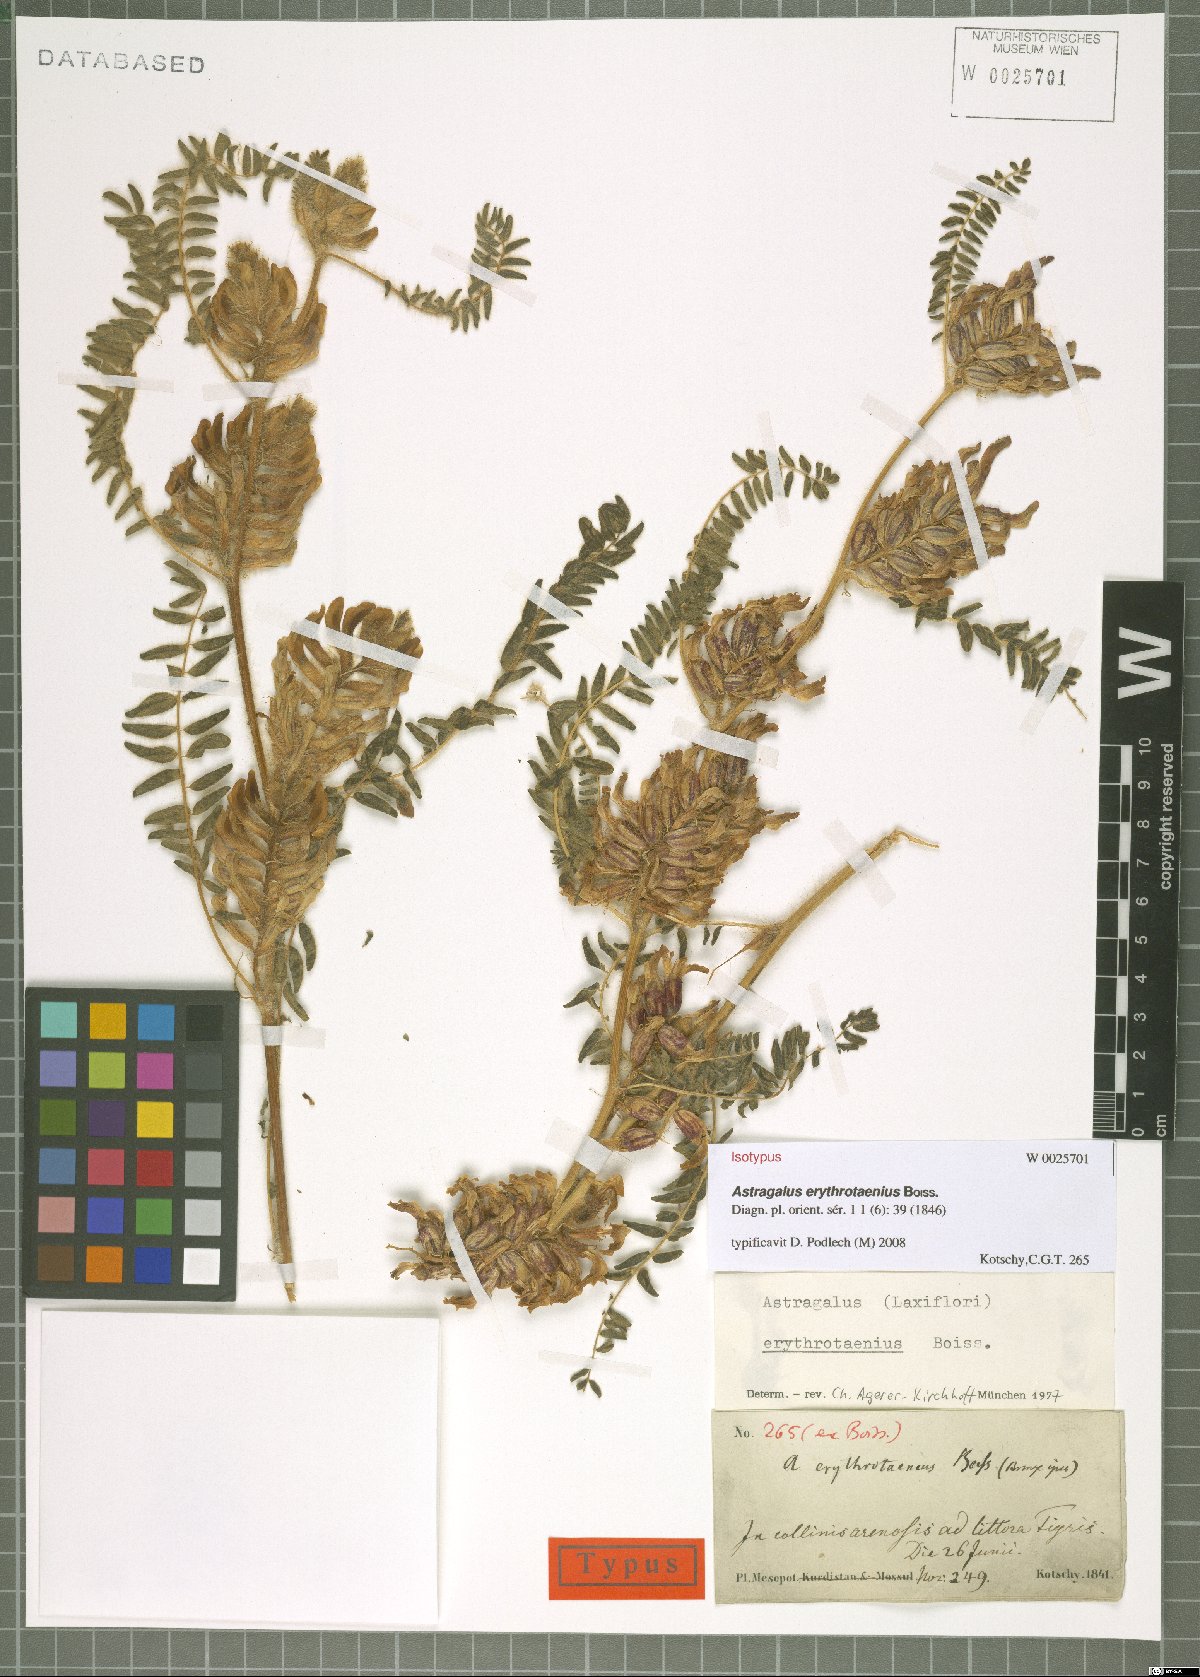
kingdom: Plantae
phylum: Tracheophyta
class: Magnoliopsida
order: Fabales
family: Fabaceae
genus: Astragalus
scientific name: Astragalus erythrotaenius
